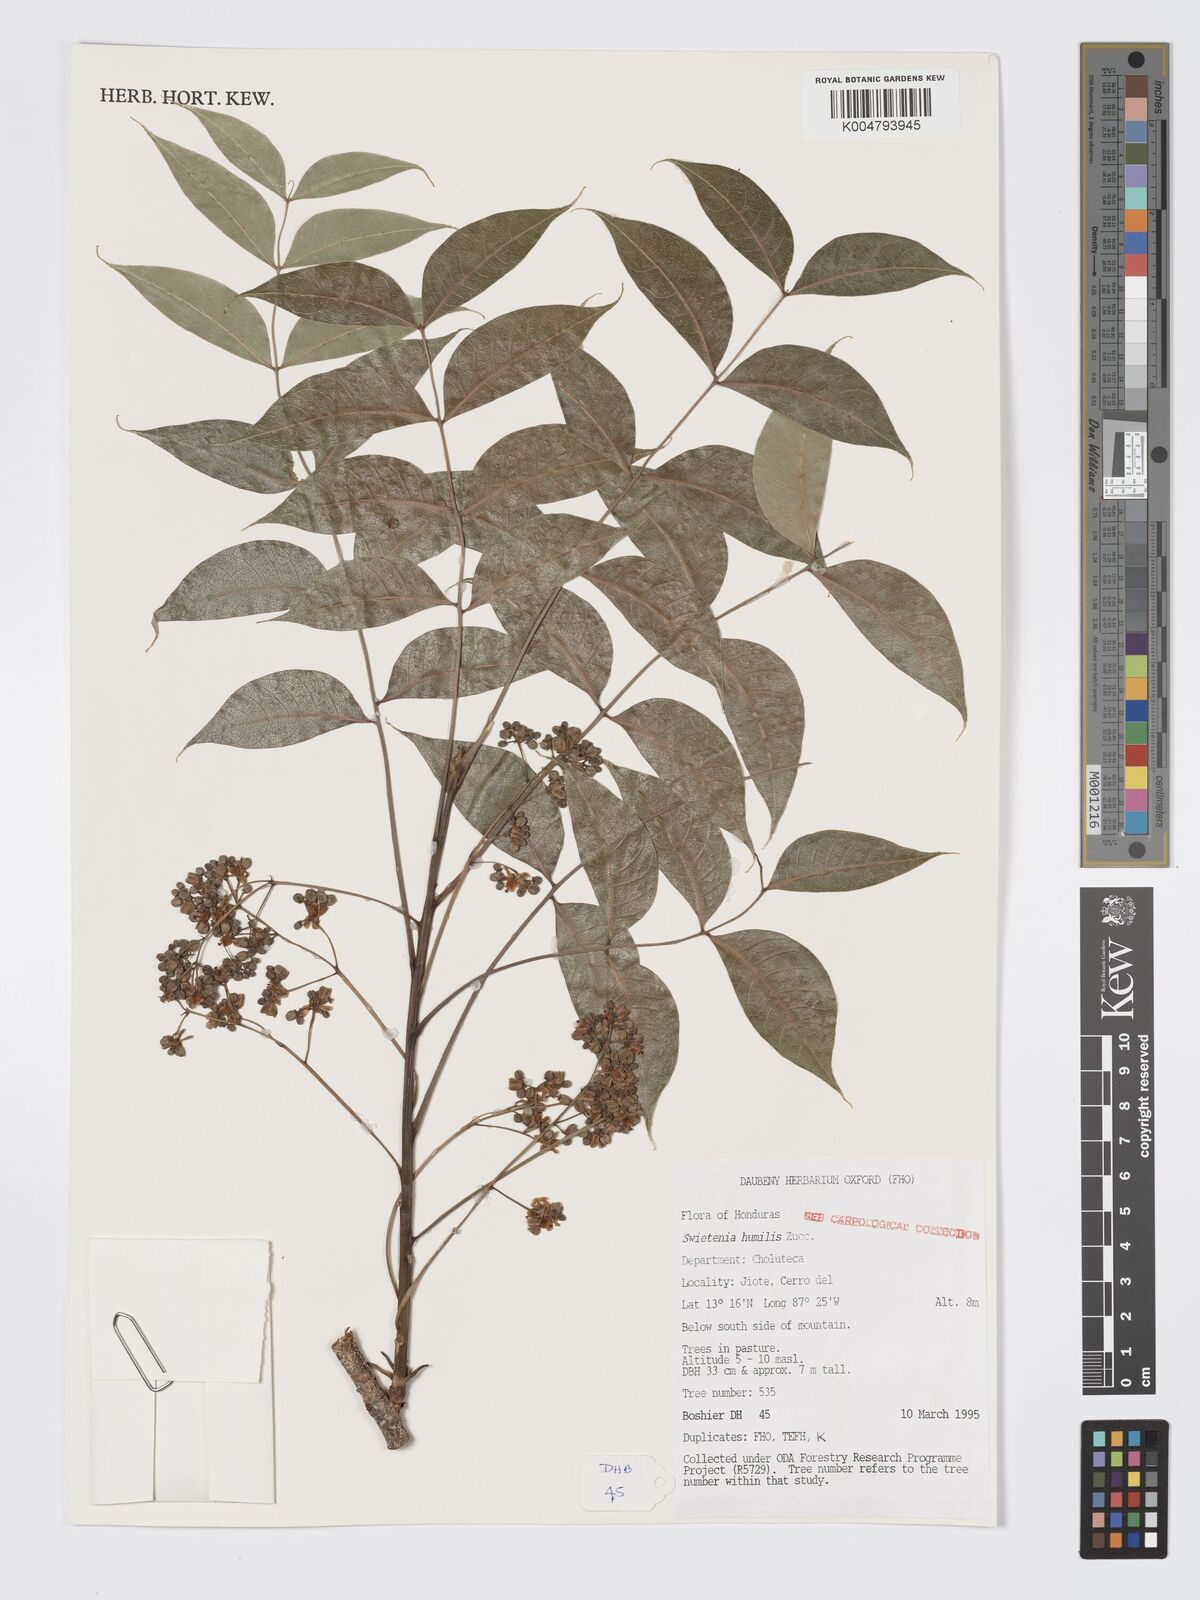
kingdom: Plantae
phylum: Tracheophyta
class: Magnoliopsida
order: Sapindales
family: Meliaceae
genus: Swietenia
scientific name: Swietenia humilis
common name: Pacific coast mahogany
